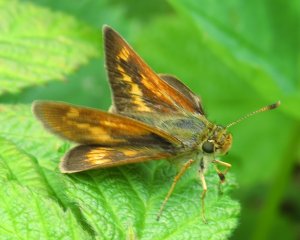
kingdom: Animalia
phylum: Arthropoda
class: Insecta
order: Lepidoptera
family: Hesperiidae
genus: Polites
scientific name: Polites
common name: Long Dash Skipper
